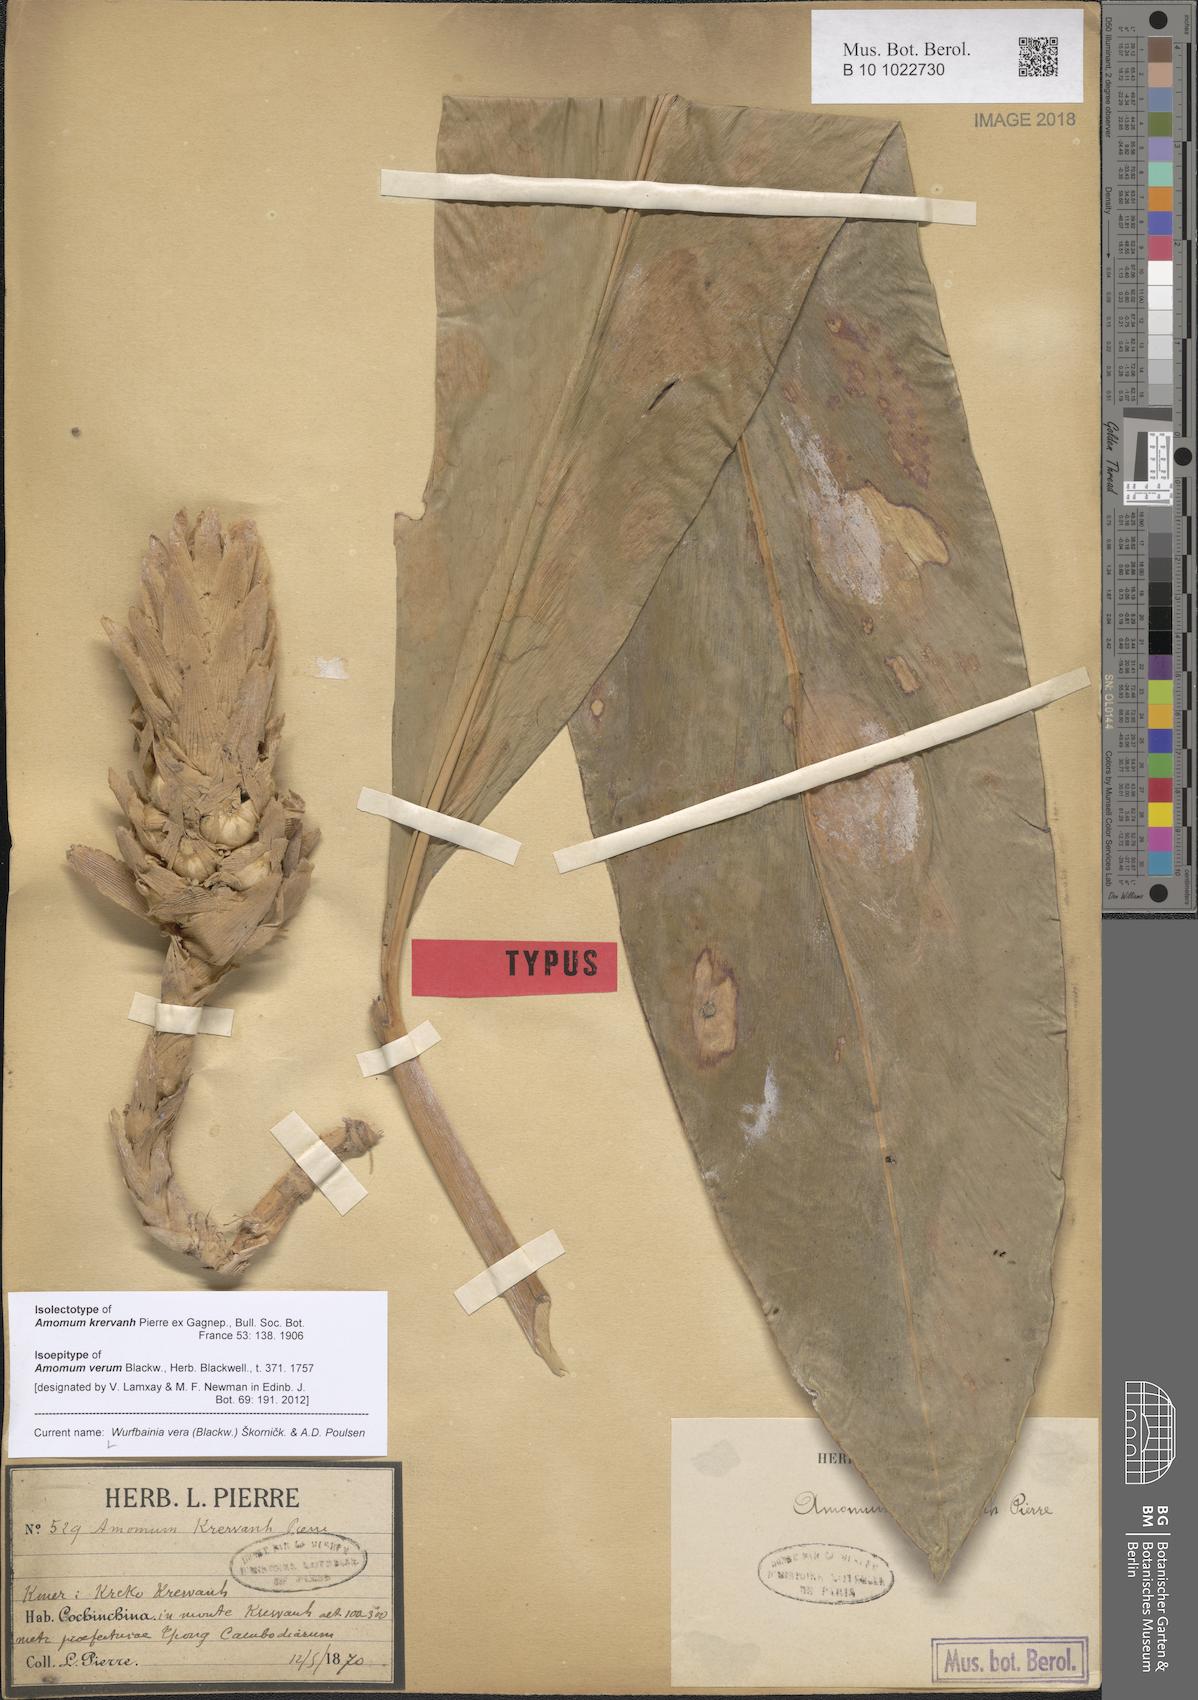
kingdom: Plantae
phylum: Tracheophyta
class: Liliopsida
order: Zingiberales
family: Zingiberaceae
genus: Wurfbainia
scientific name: Wurfbainia vera
